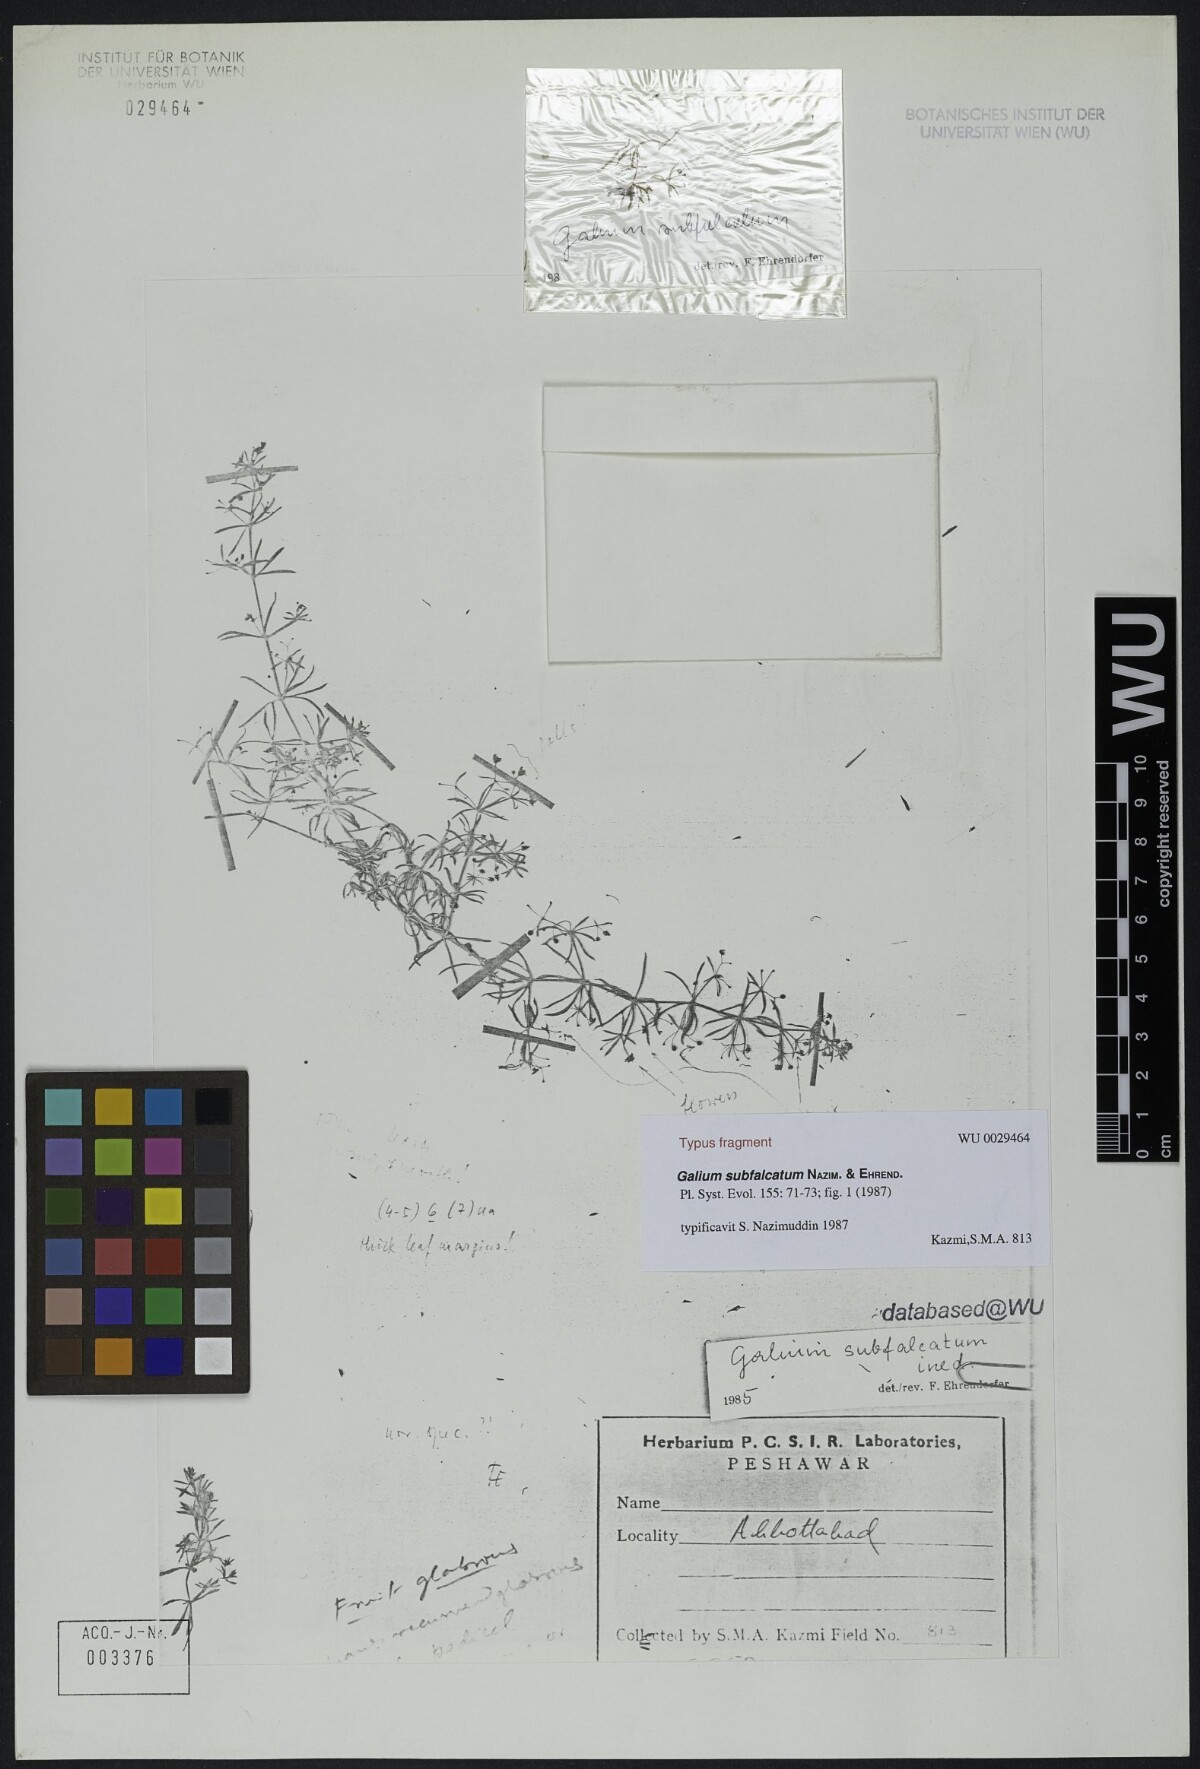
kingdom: Plantae
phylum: Tracheophyta
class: Magnoliopsida
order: Gentianales
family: Rubiaceae
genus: Galium
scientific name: Galium subfalcatum
